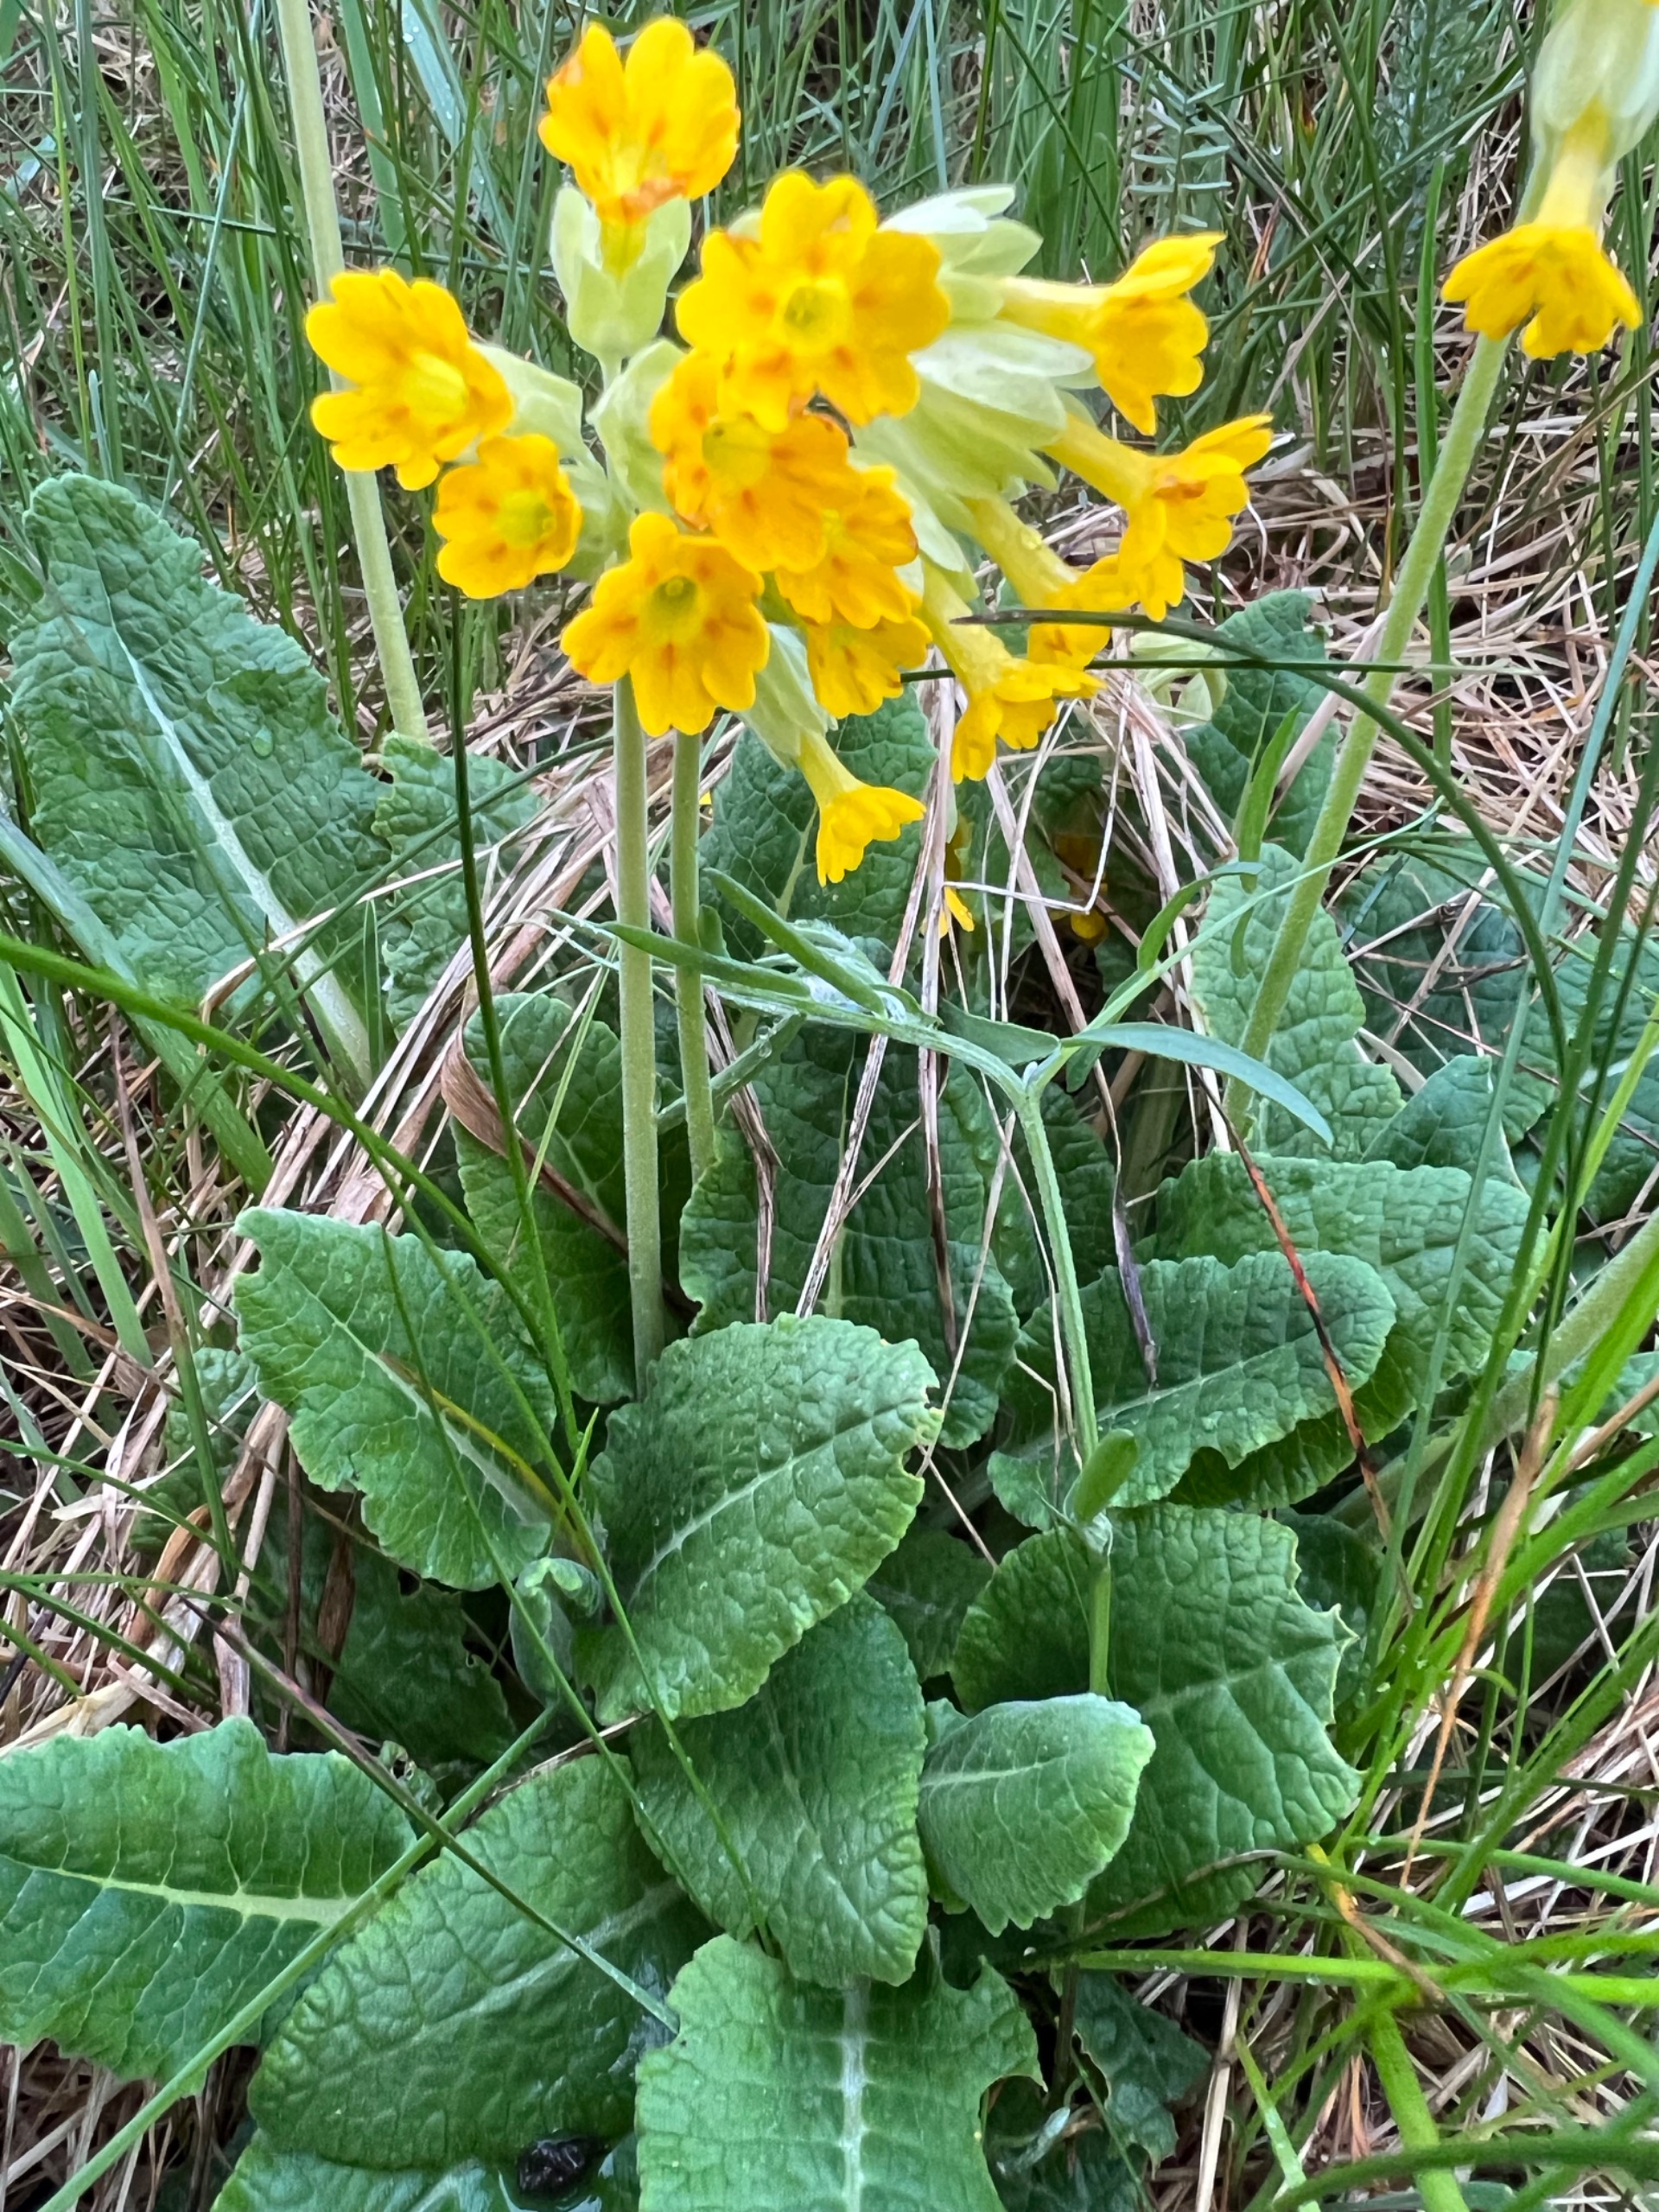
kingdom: Plantae
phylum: Tracheophyta
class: Magnoliopsida
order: Ericales
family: Primulaceae
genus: Primula
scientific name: Primula veris
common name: Hulkravet kodriver
